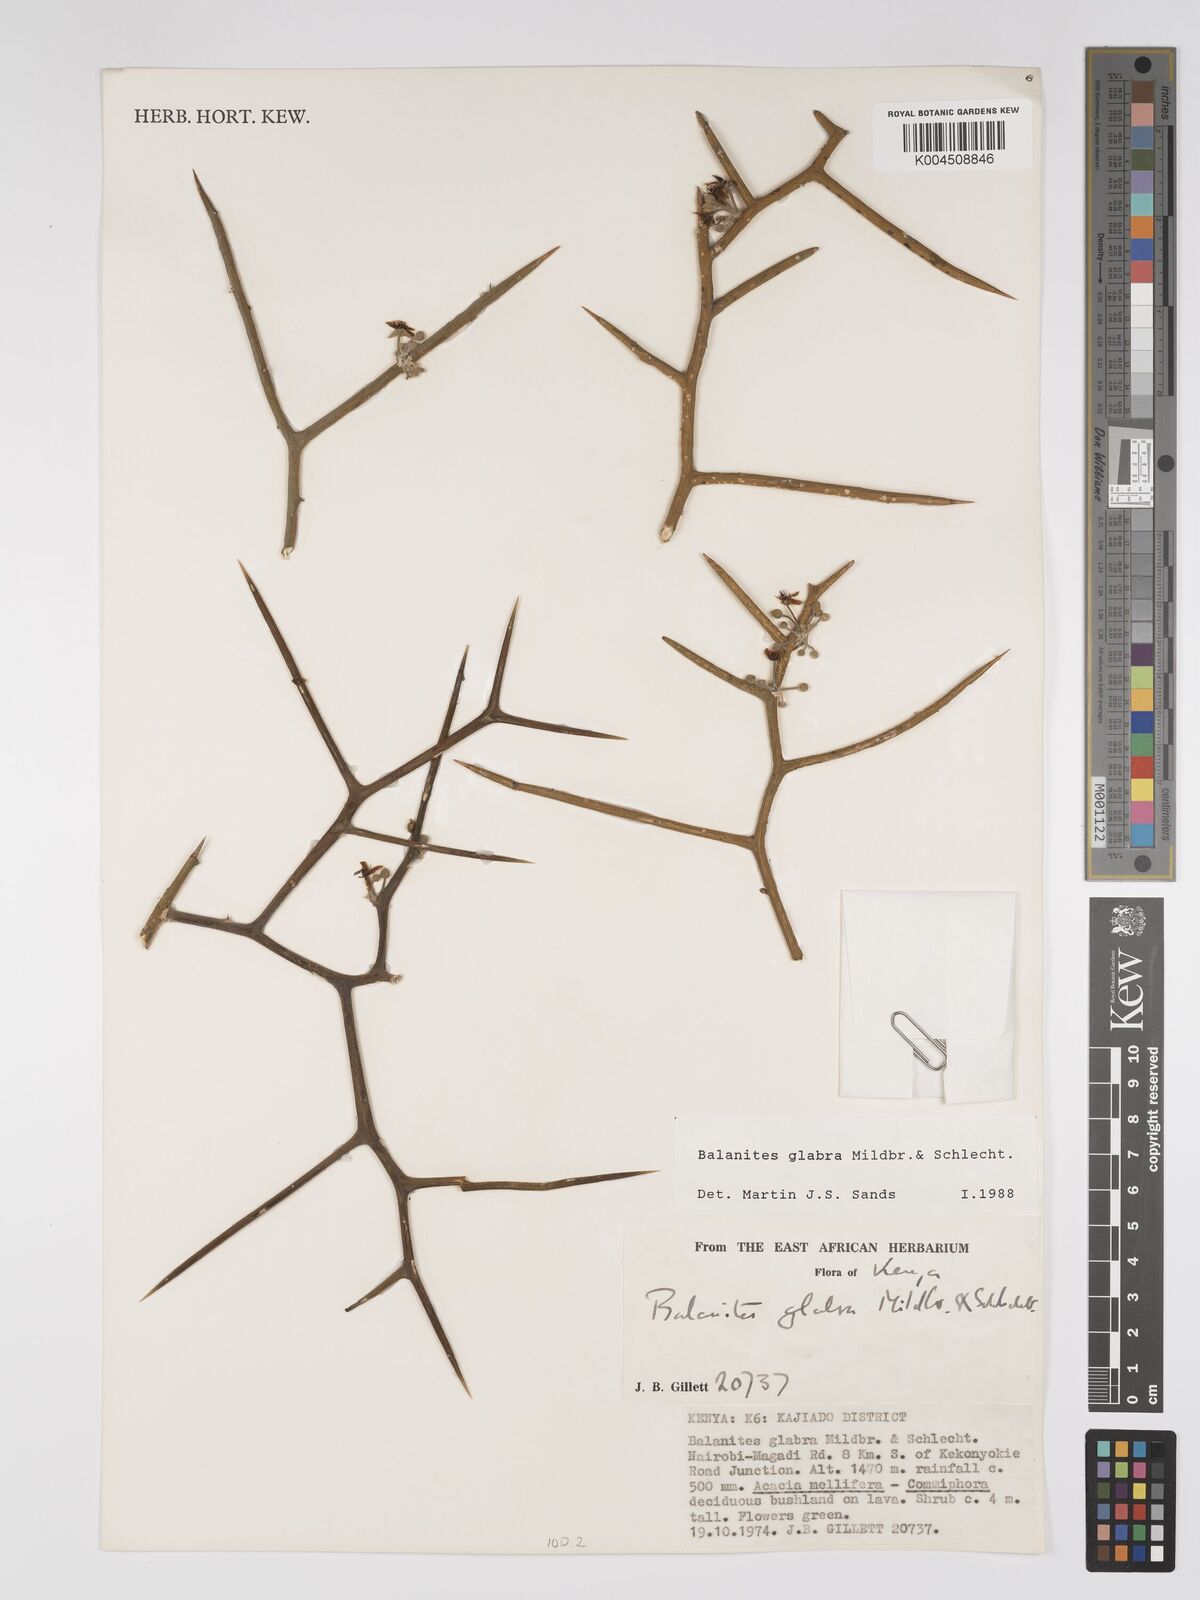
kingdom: Plantae
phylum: Tracheophyta
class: Magnoliopsida
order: Zygophyllales
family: Zygophyllaceae
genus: Balanites
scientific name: Balanites glabra
